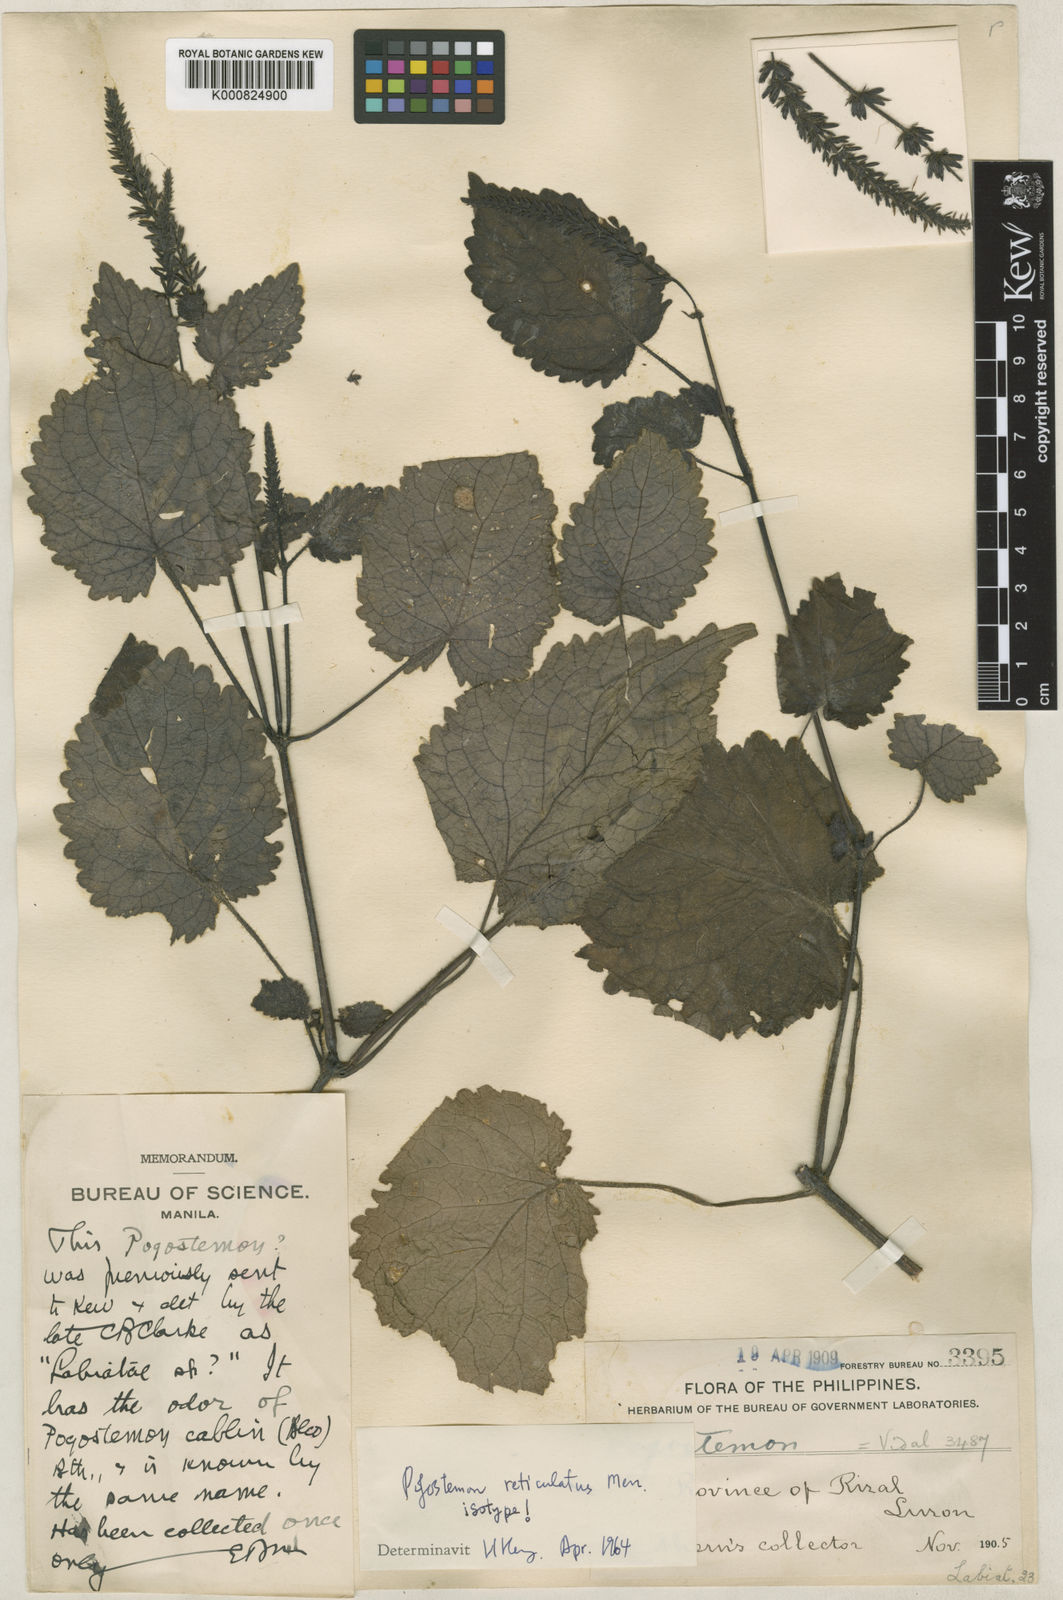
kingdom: Plantae
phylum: Tracheophyta
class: Magnoliopsida
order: Lamiales
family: Lamiaceae
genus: Pogostemon
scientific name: Pogostemon reticulatus
